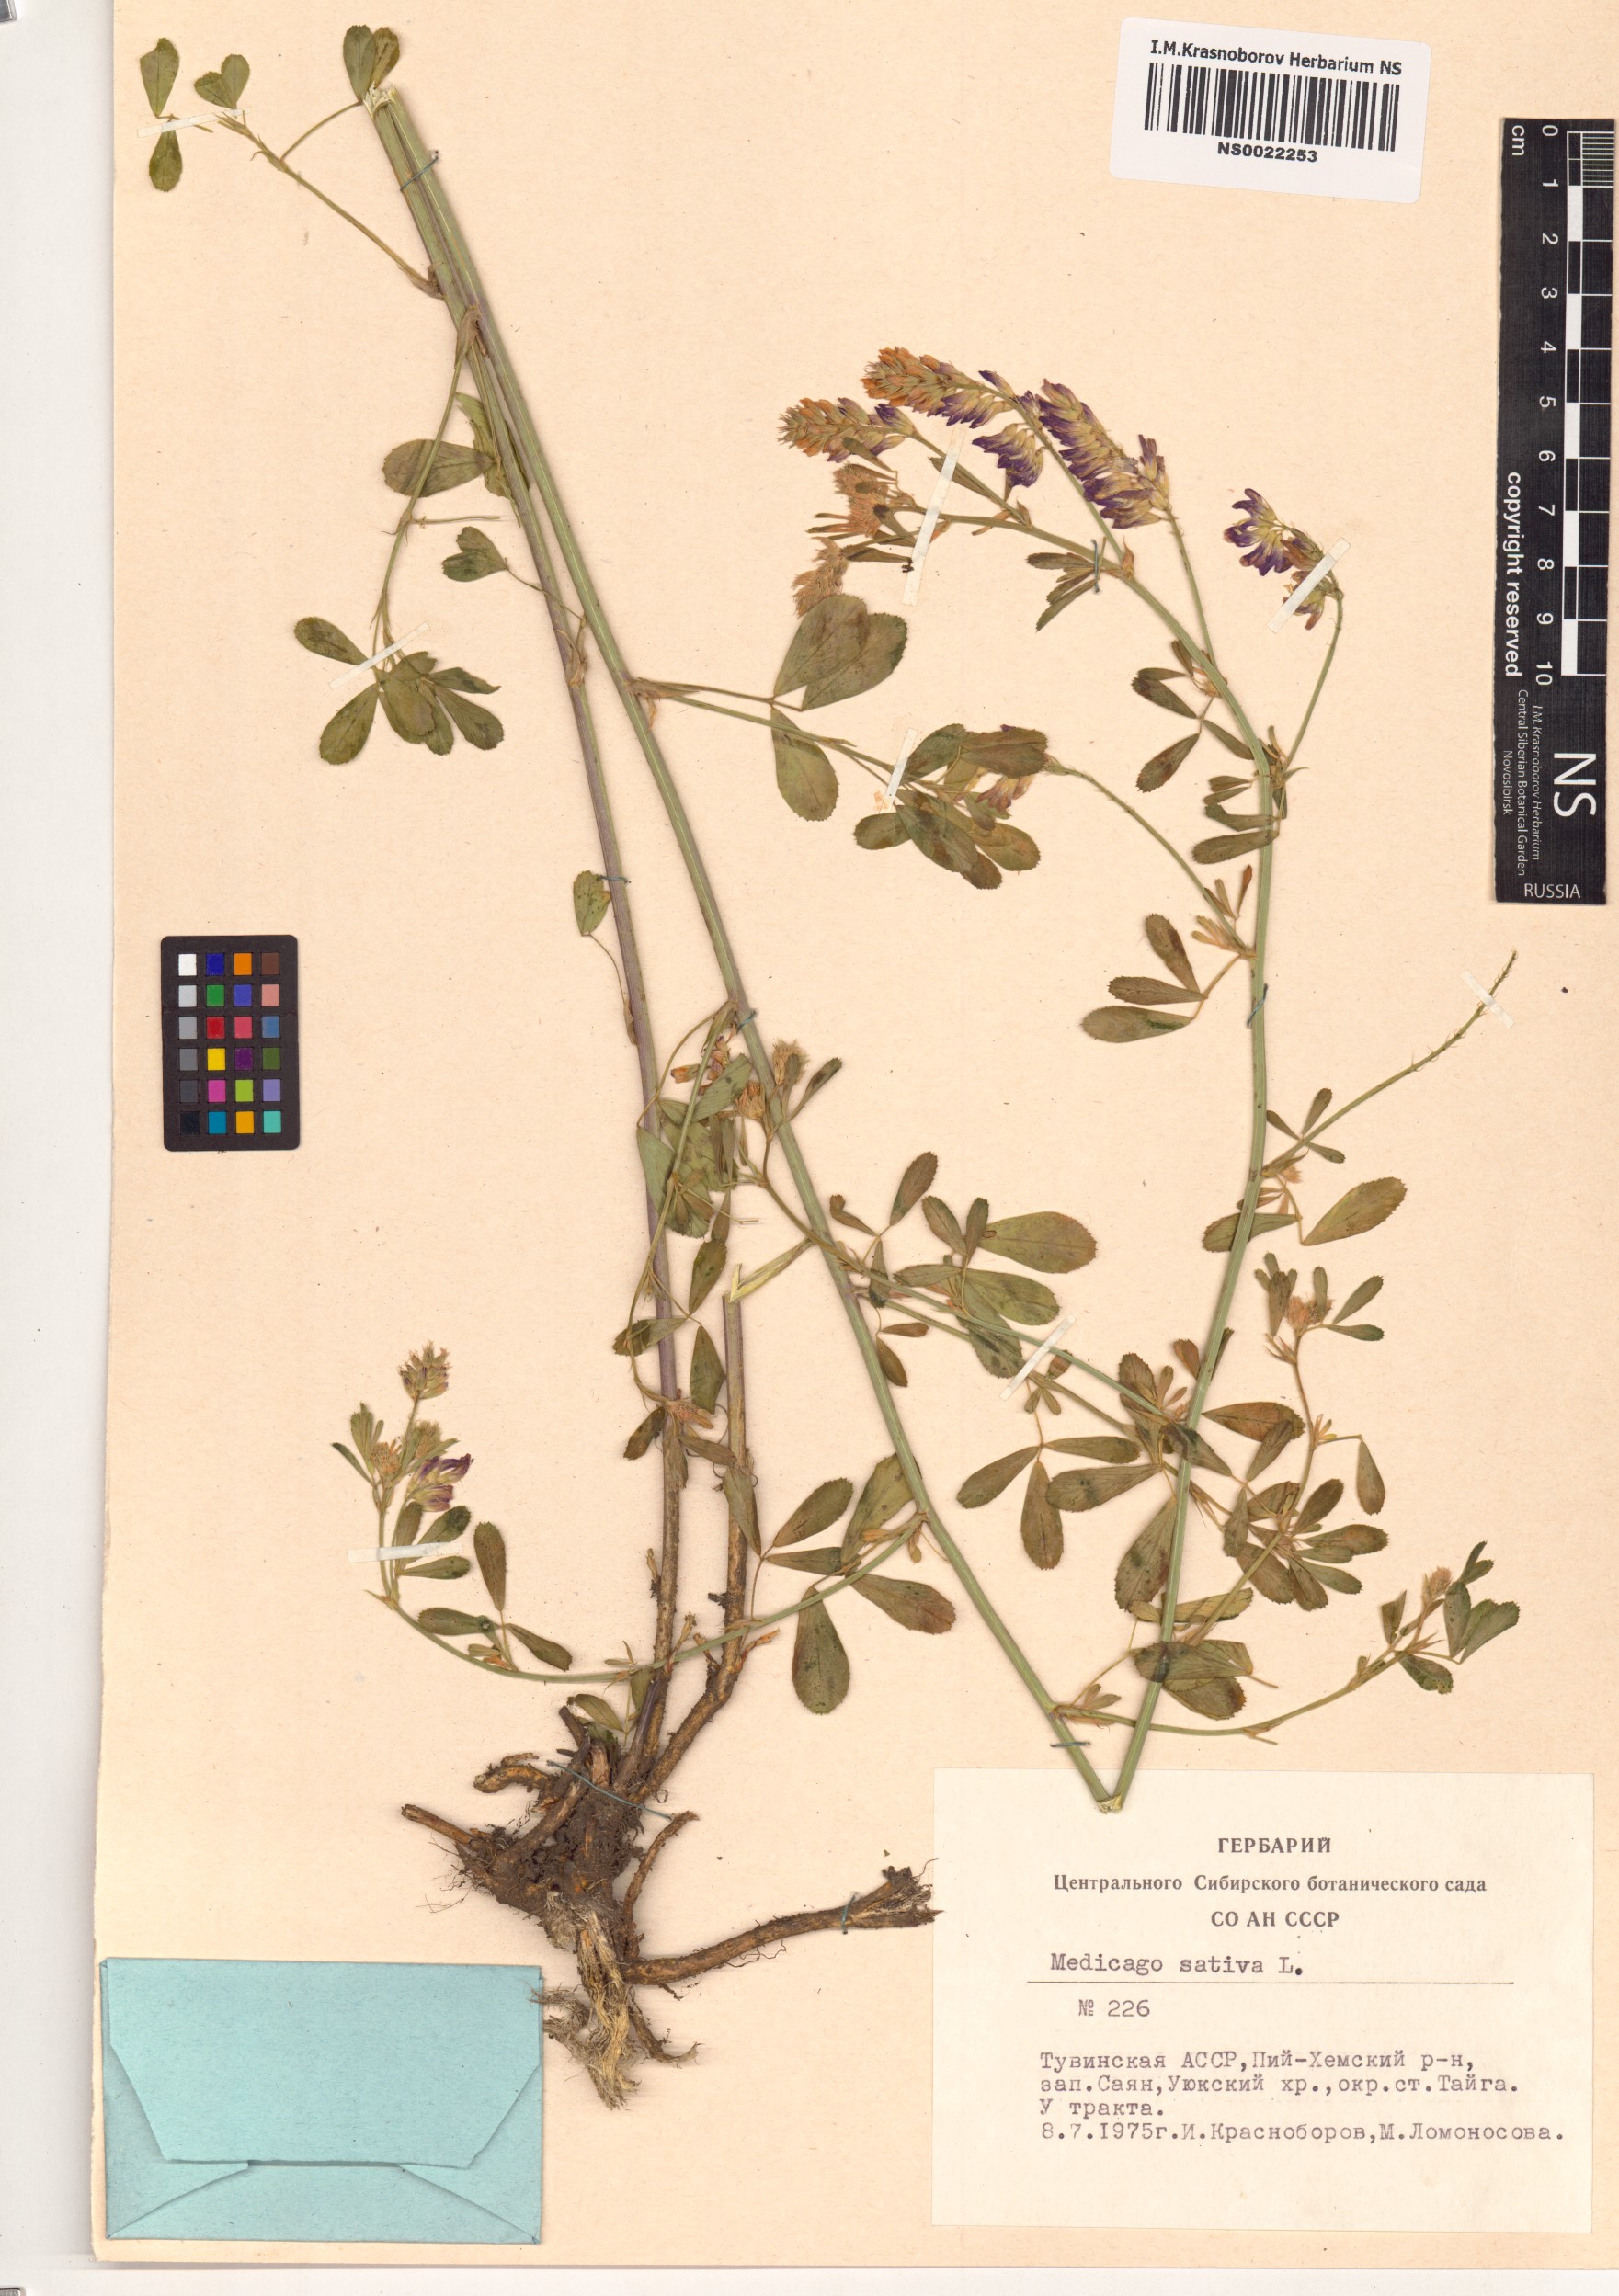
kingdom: Plantae
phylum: Tracheophyta
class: Magnoliopsida
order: Fabales
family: Fabaceae
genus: Medicago
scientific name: Medicago sativa
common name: Alfalfa
